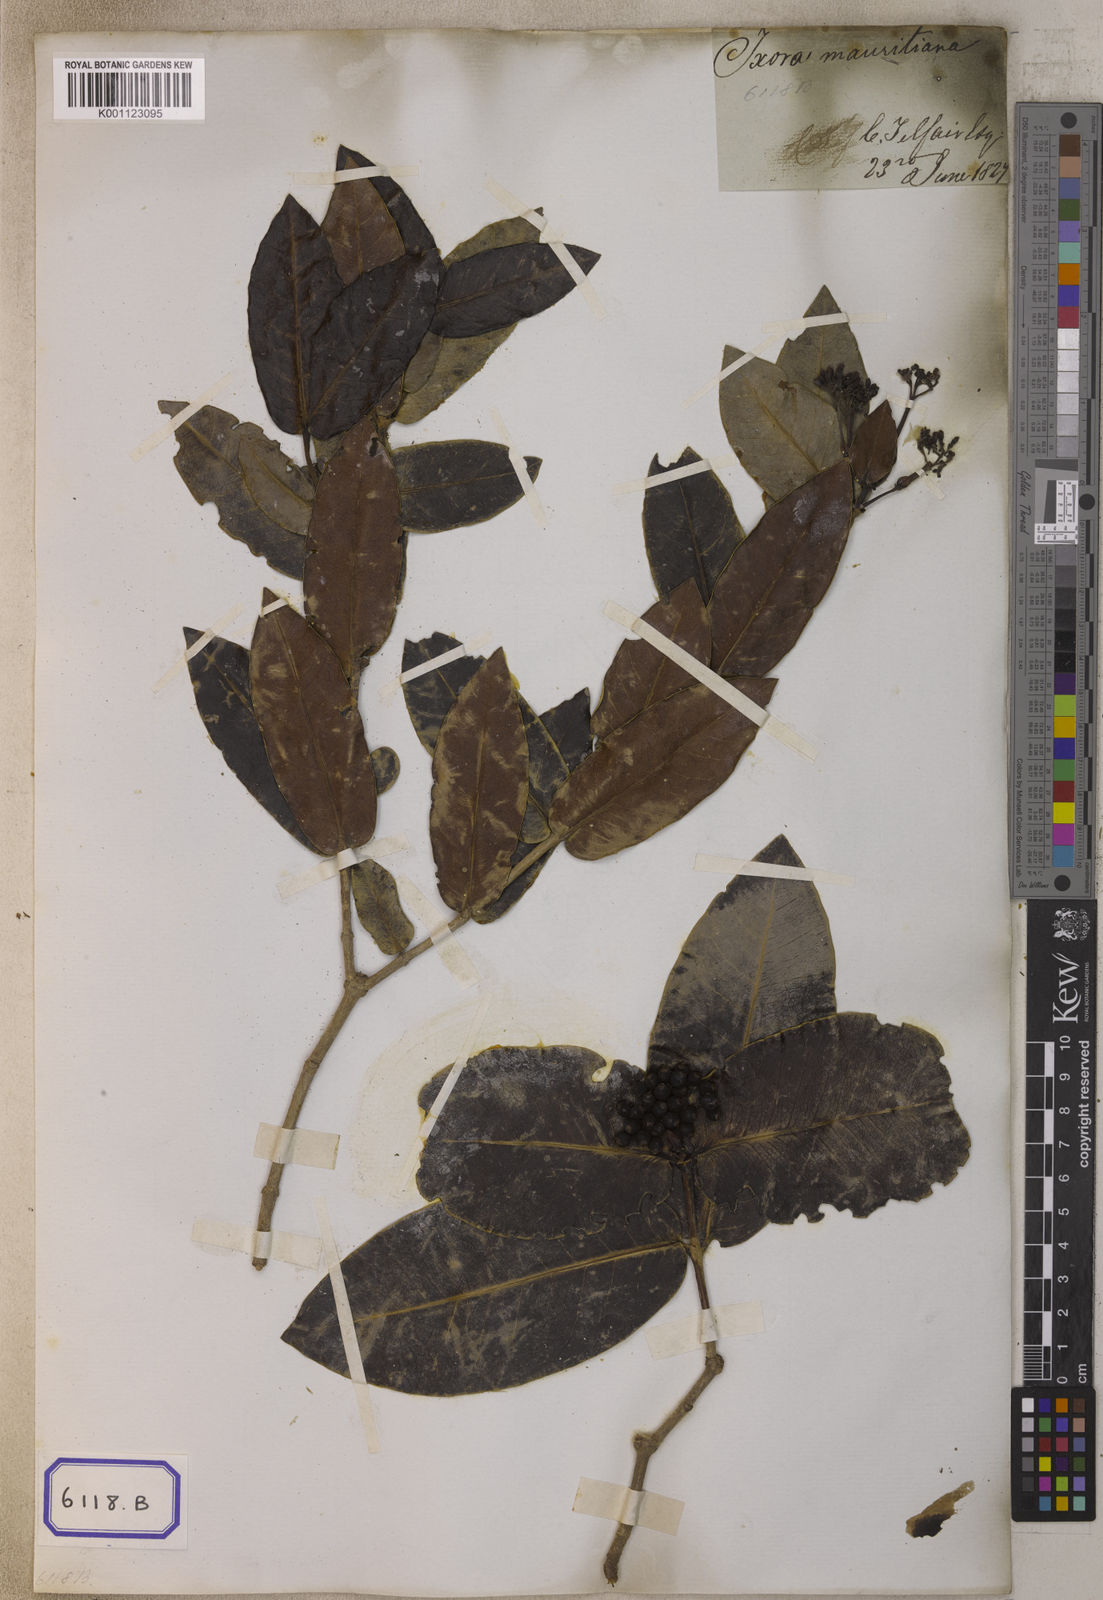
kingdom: Plantae
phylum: Tracheophyta
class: Magnoliopsida
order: Gentianales
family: Rubiaceae
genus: Ixora
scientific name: Ixora
